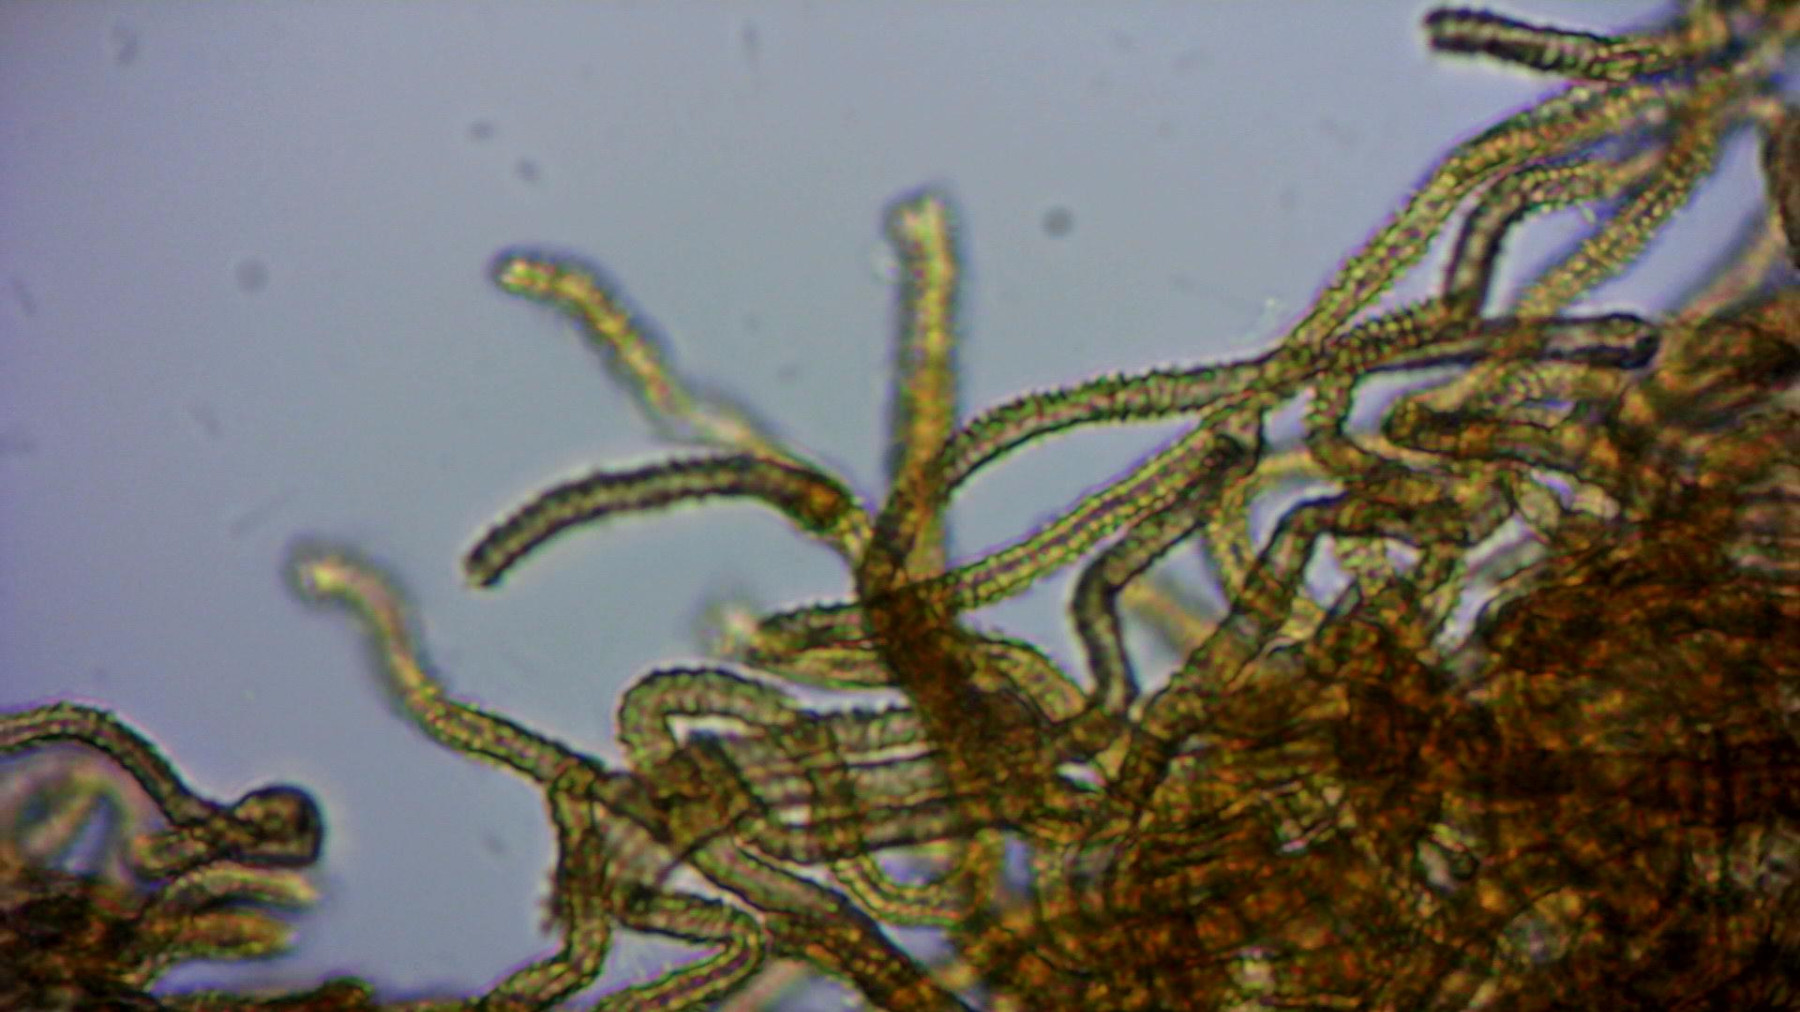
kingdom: Protozoa
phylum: Mycetozoa
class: Myxomycetes
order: Trichiales
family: Arcyriaceae
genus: Arcyria
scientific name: Arcyria pomiformis
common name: Golden apple slime mold
